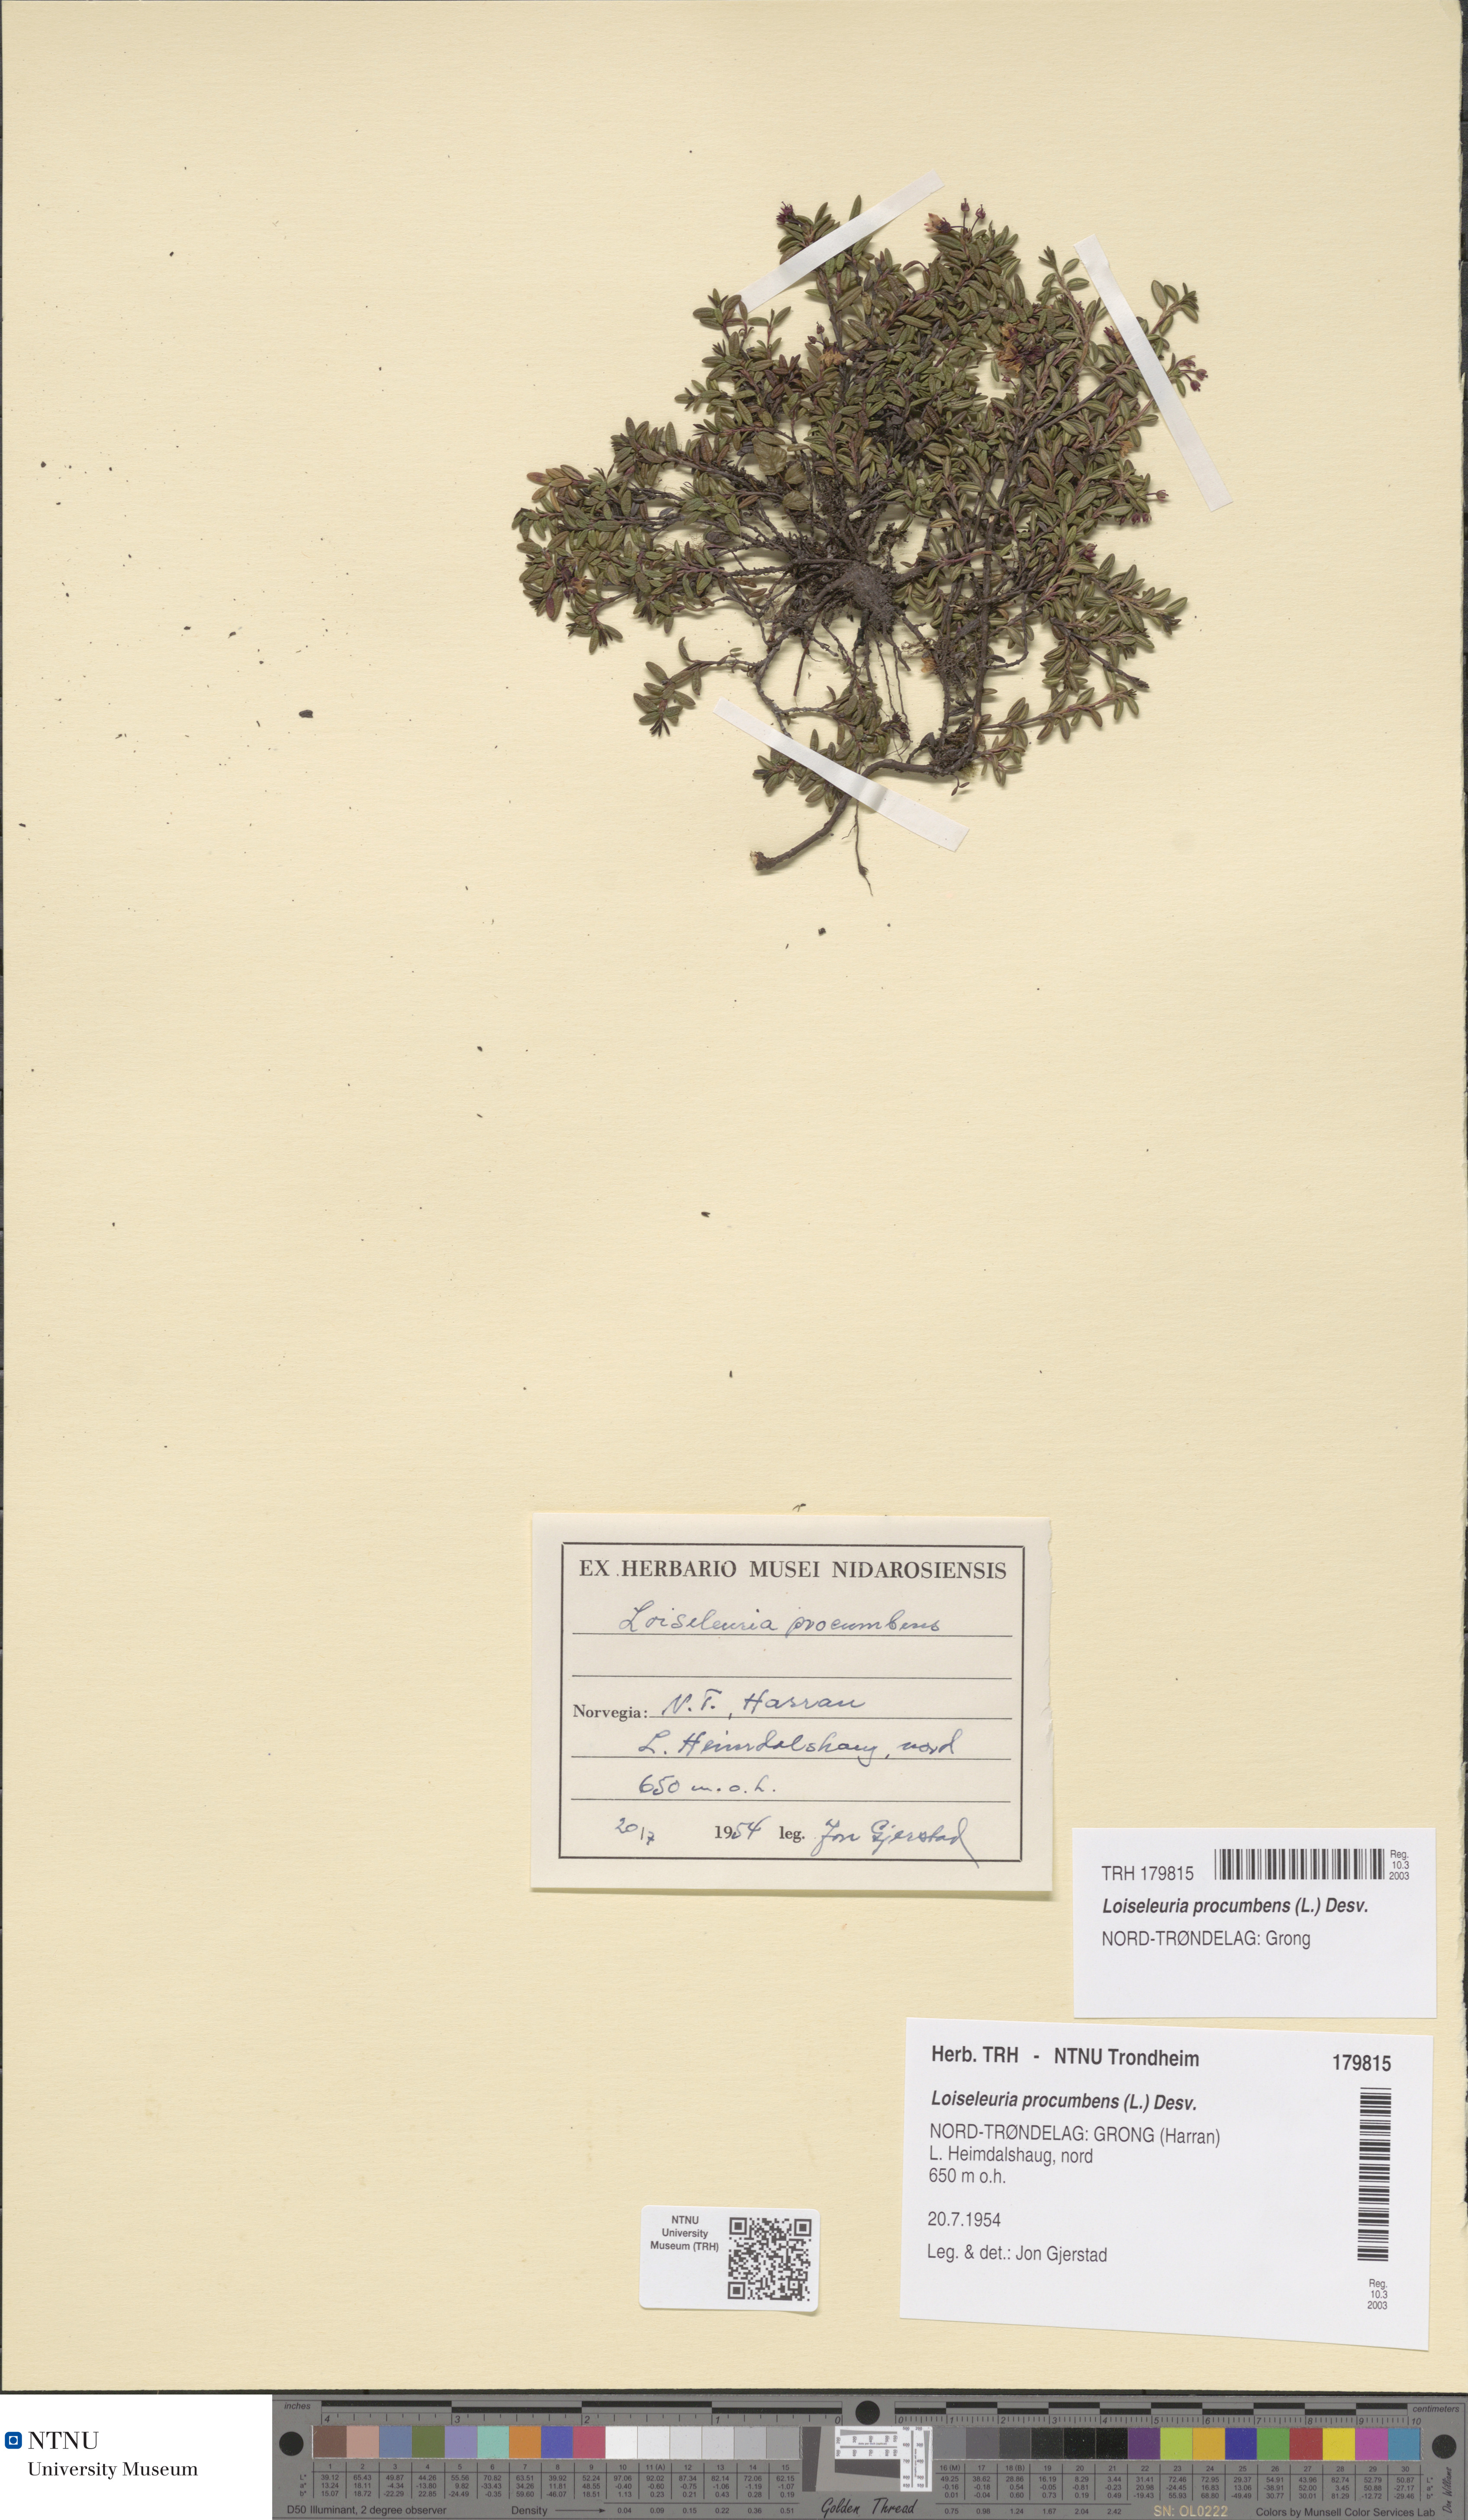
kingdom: Plantae
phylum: Tracheophyta
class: Magnoliopsida
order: Ericales
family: Ericaceae
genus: Kalmia
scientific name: Kalmia procumbens
